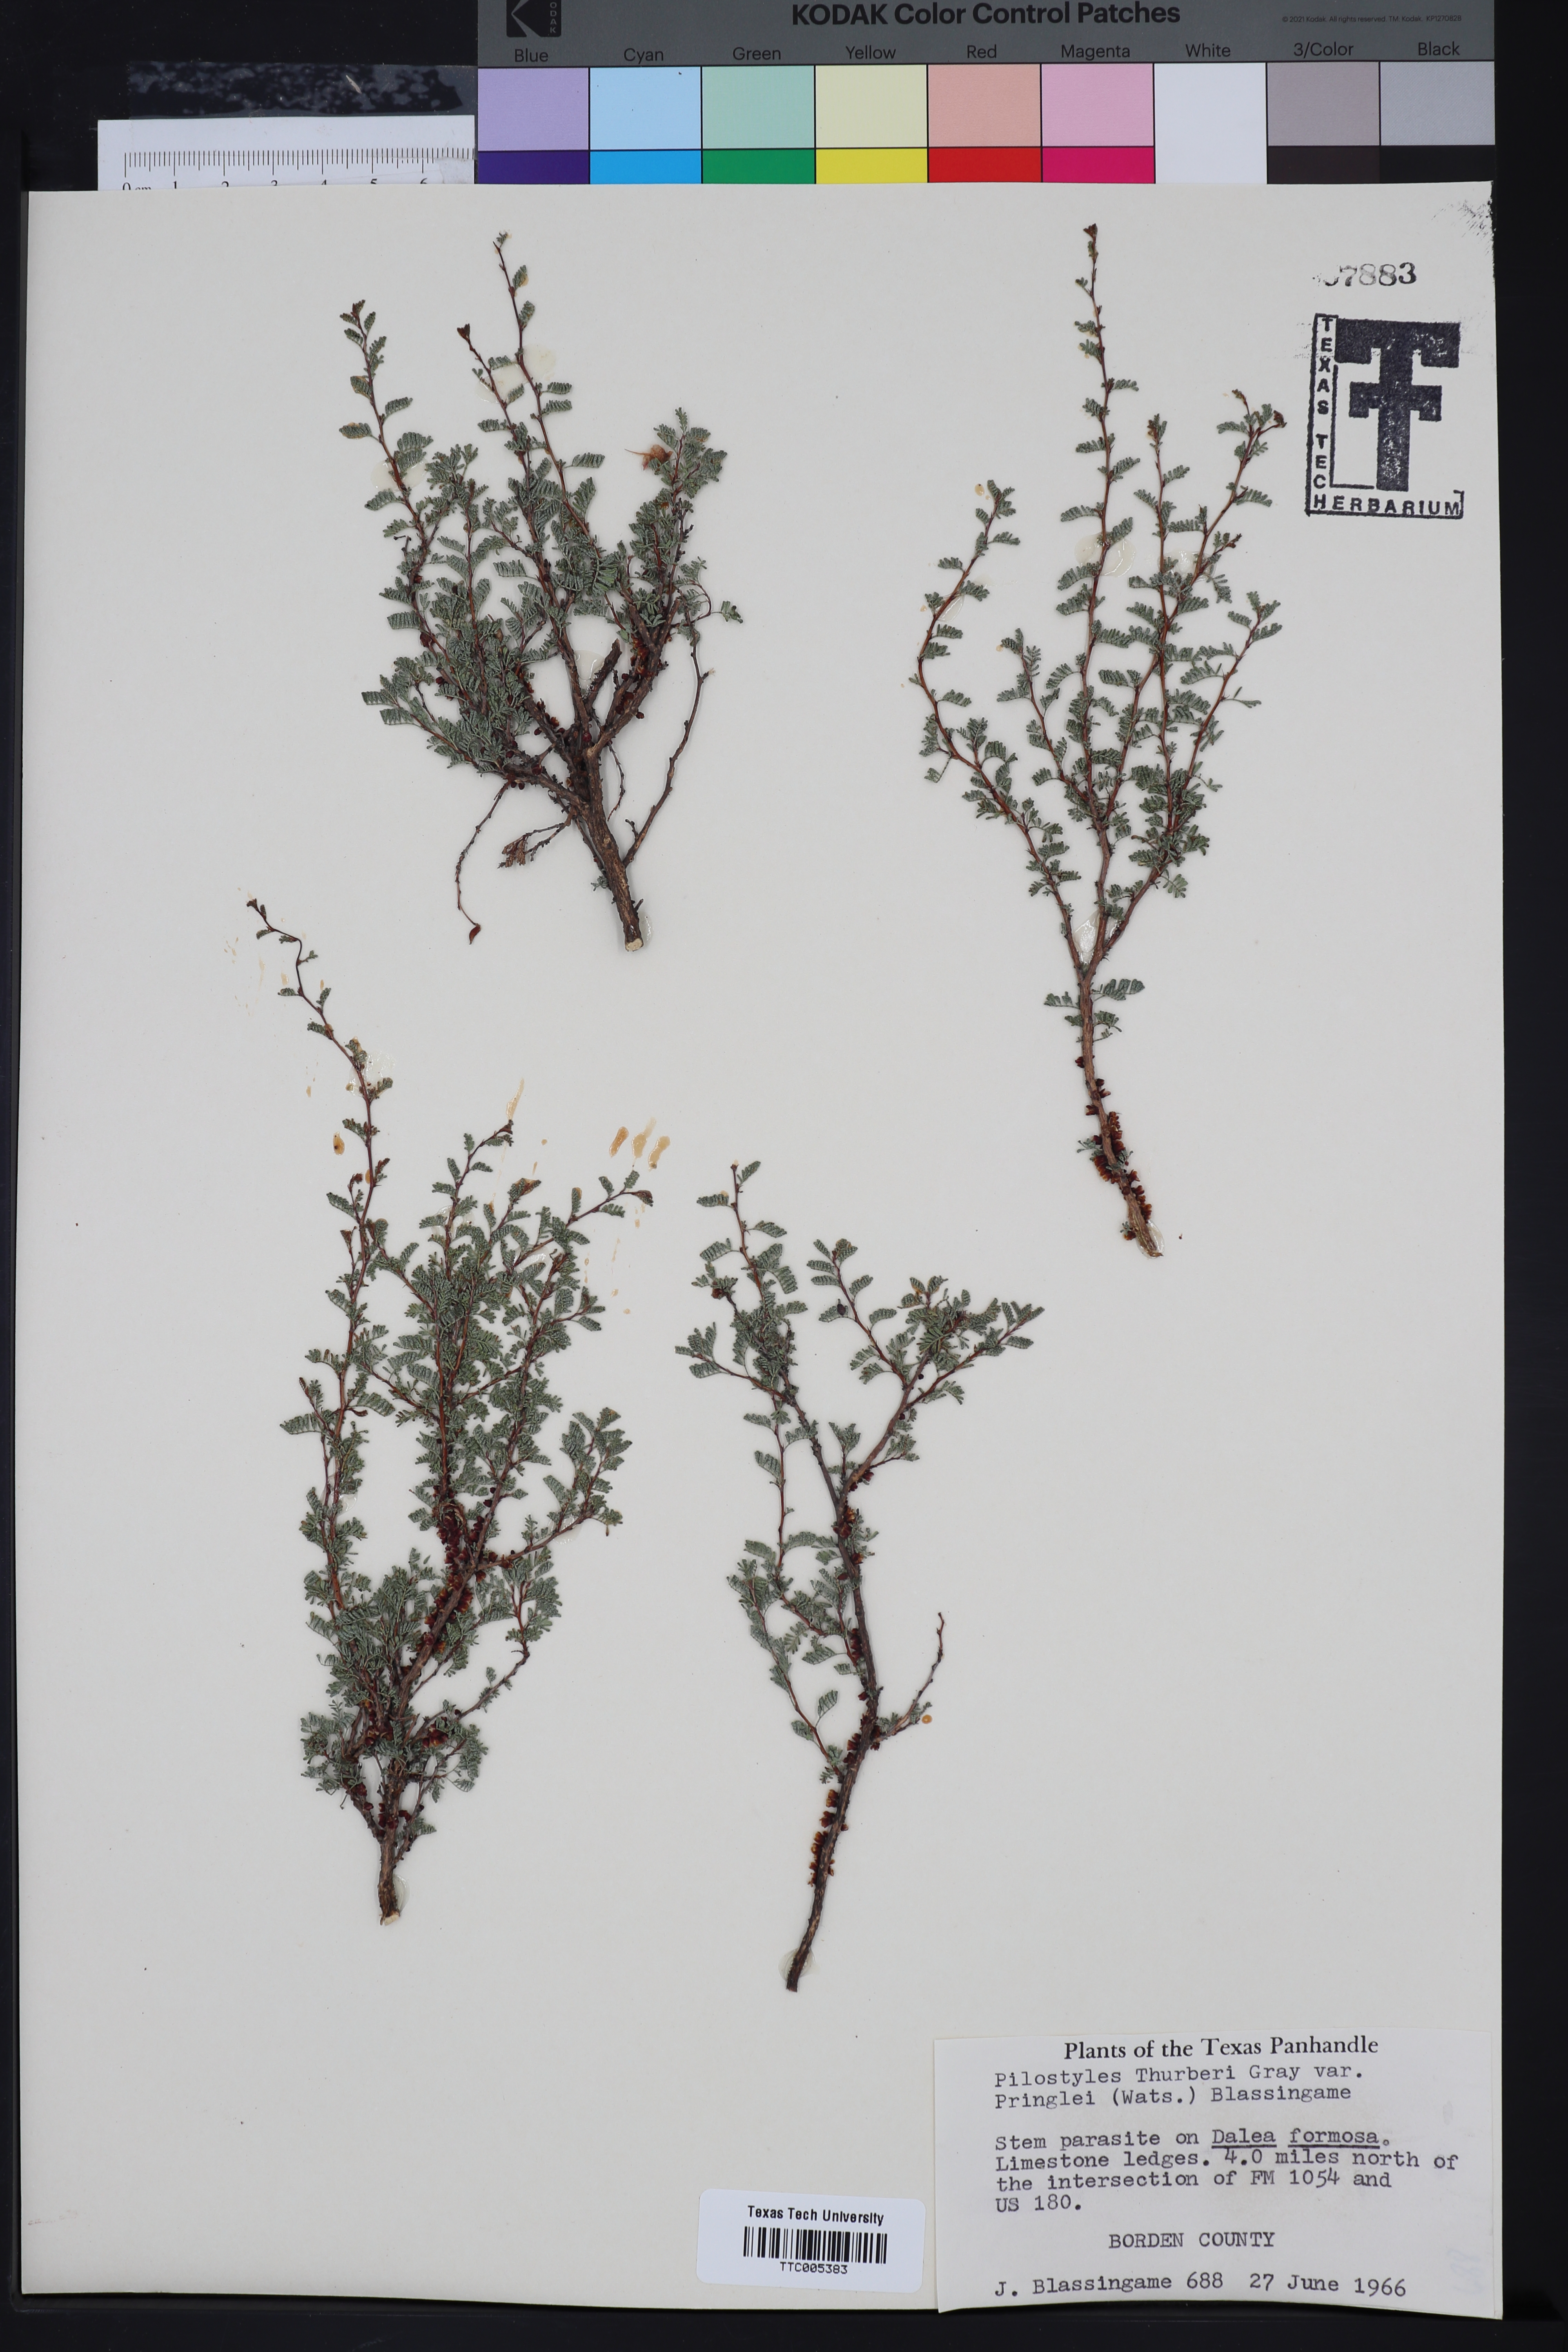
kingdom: Plantae
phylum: Tracheophyta
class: Magnoliopsida
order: Cucurbitales
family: Apodanthaceae
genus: Pilostyles
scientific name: Pilostyles thurberi
